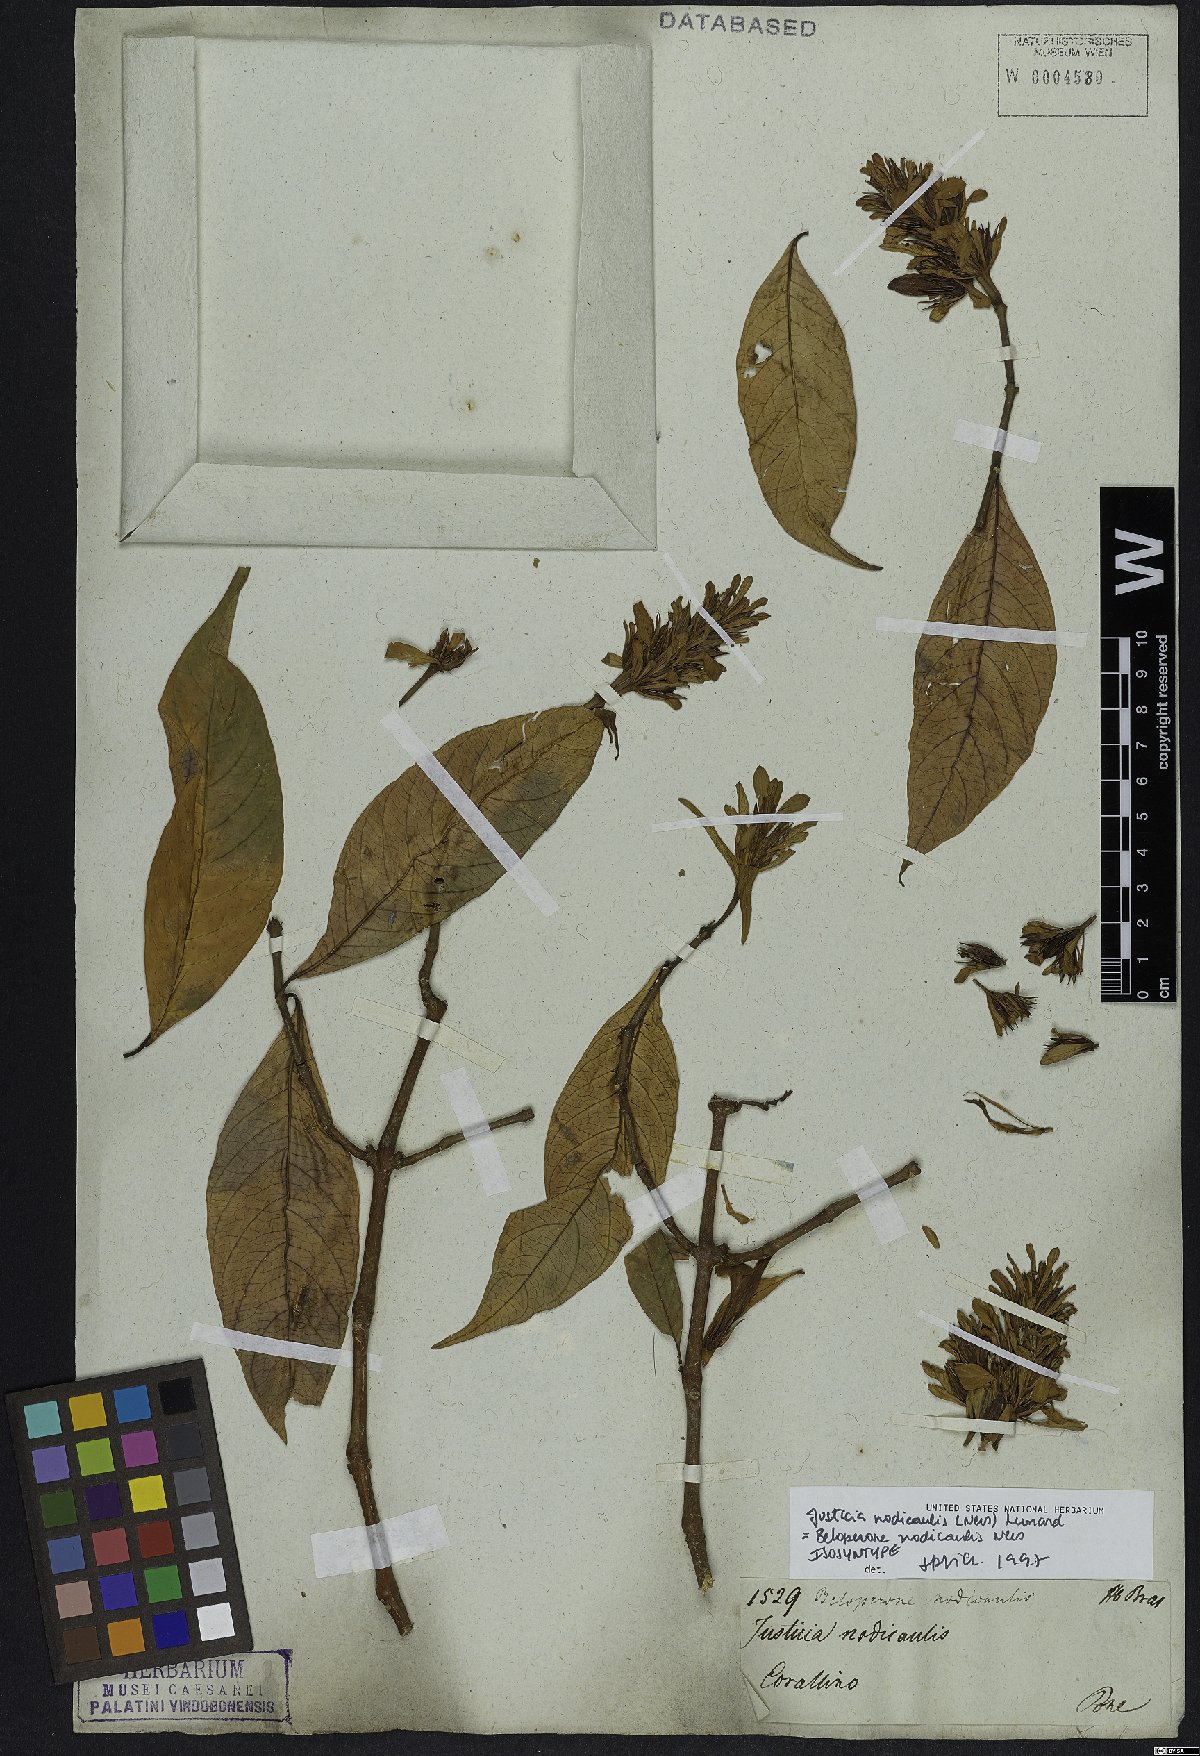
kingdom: Plantae
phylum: Tracheophyta
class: Magnoliopsida
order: Lamiales
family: Acanthaceae
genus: Justicia
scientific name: Justicia nodicaulis
